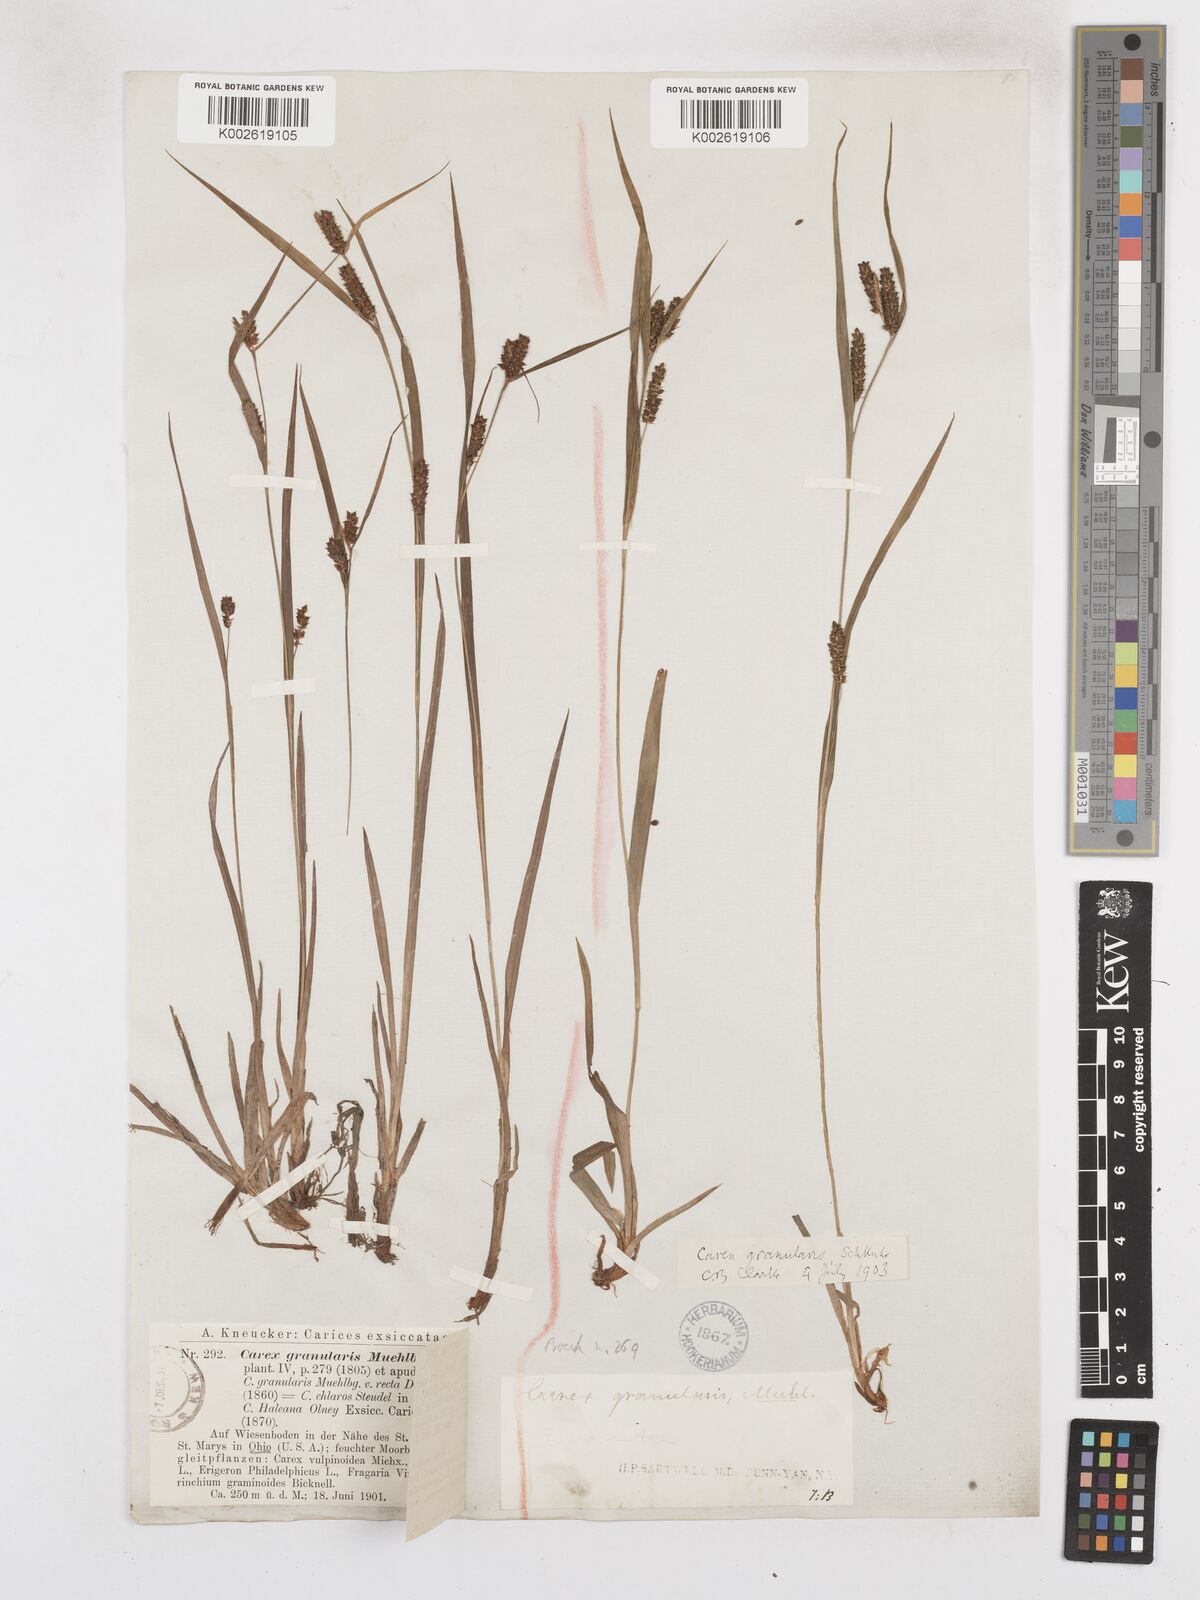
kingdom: Plantae
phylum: Tracheophyta
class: Liliopsida
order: Poales
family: Cyperaceae
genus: Carex
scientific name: Carex granularis
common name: Granular sedge
